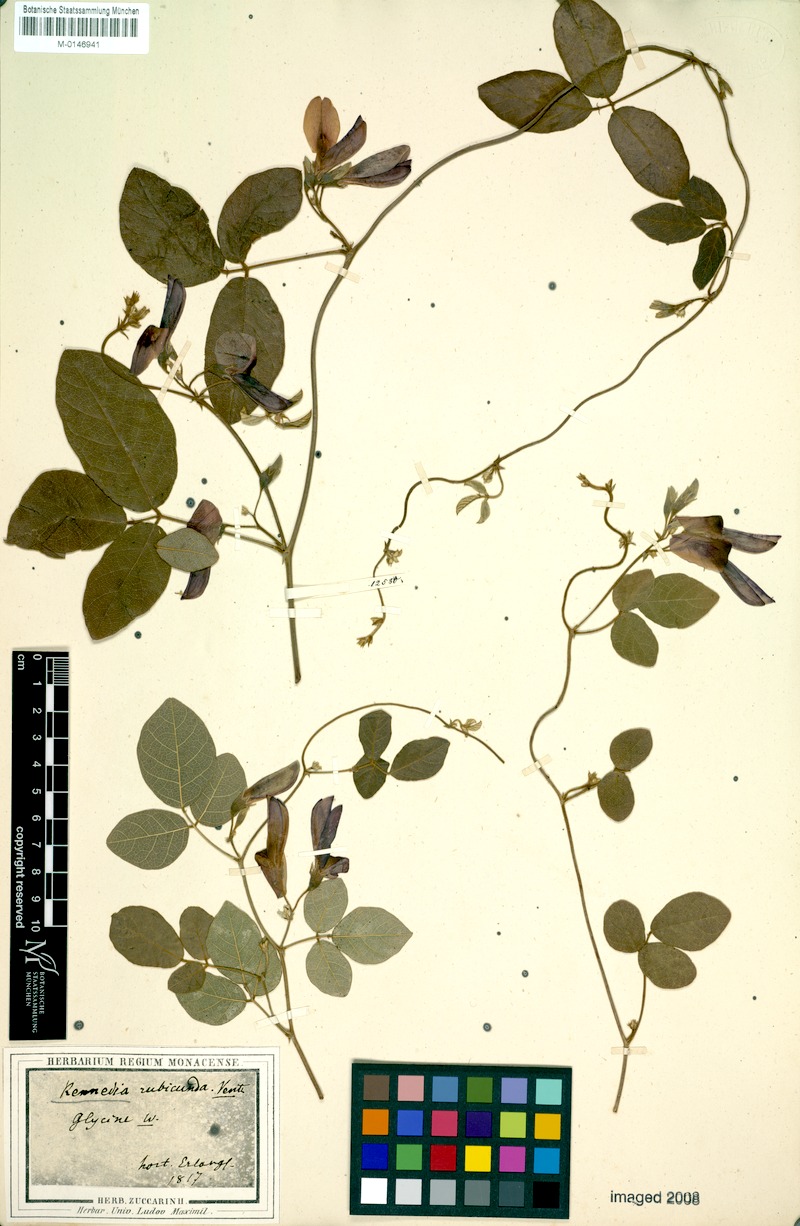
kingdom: Plantae
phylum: Tracheophyta
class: Magnoliopsida
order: Fabales
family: Fabaceae
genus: Kennedia
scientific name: Kennedia rubicunda
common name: Red kennedy-pea
